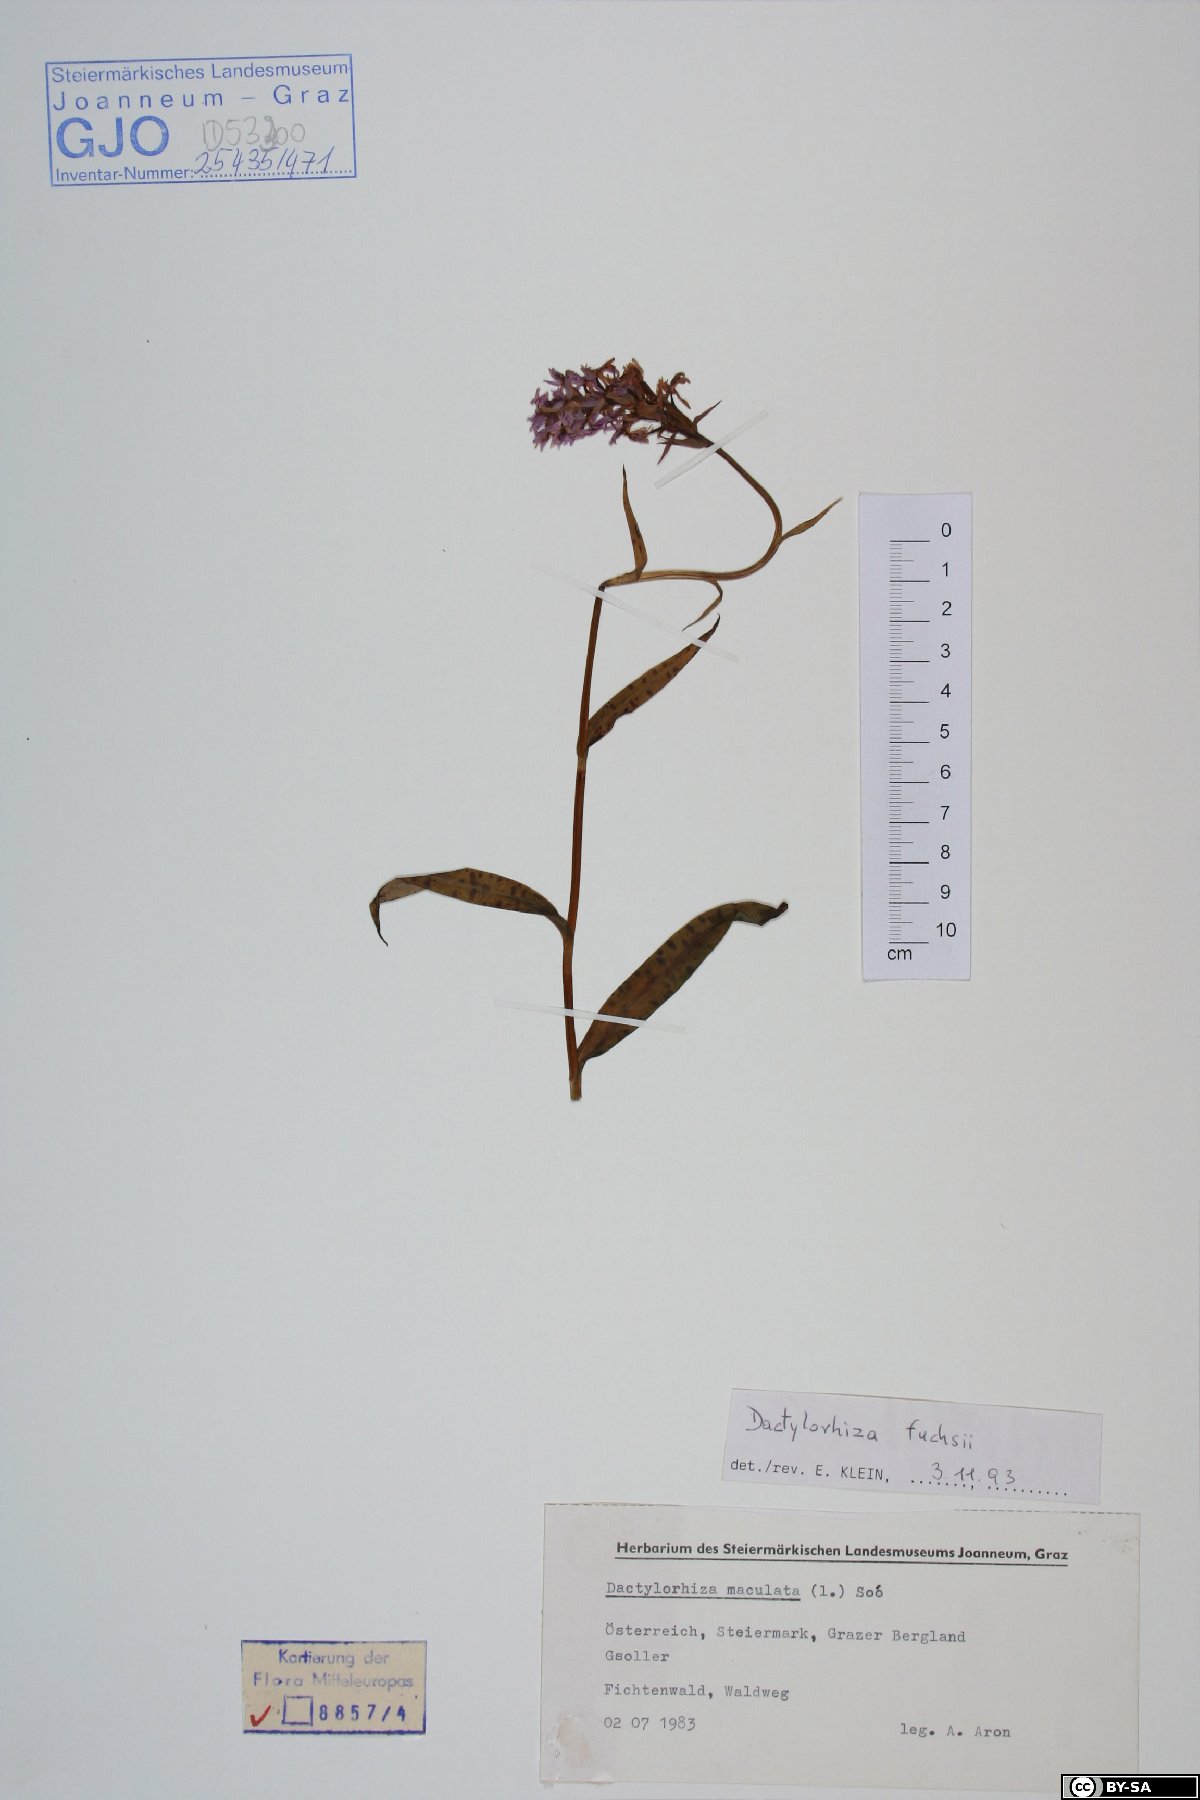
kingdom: Plantae
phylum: Tracheophyta
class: Liliopsida
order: Asparagales
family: Orchidaceae
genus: Dactylorhiza
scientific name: Dactylorhiza maculata
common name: Heath spotted-orchid
